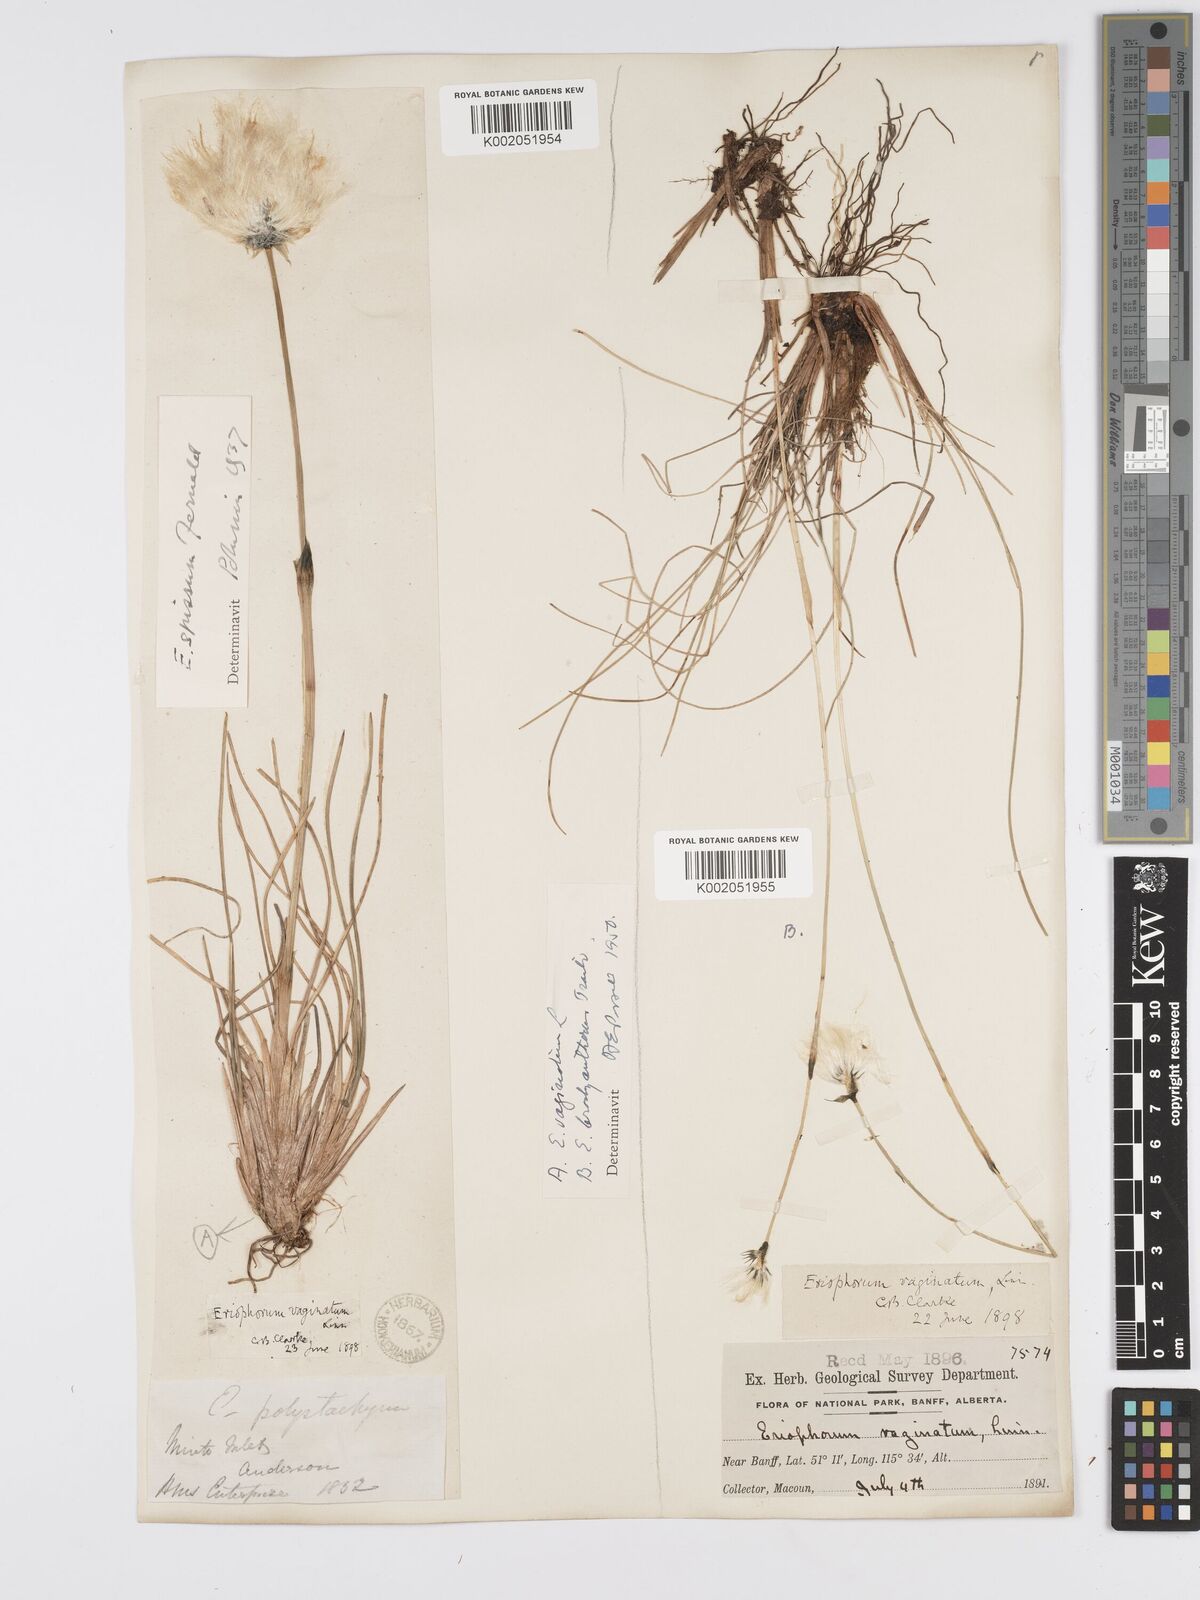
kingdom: Plantae
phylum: Tracheophyta
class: Liliopsida
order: Poales
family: Cyperaceae
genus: Eriophorum
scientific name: Eriophorum brachyantherum
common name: Closed-sheathed cottongrass
